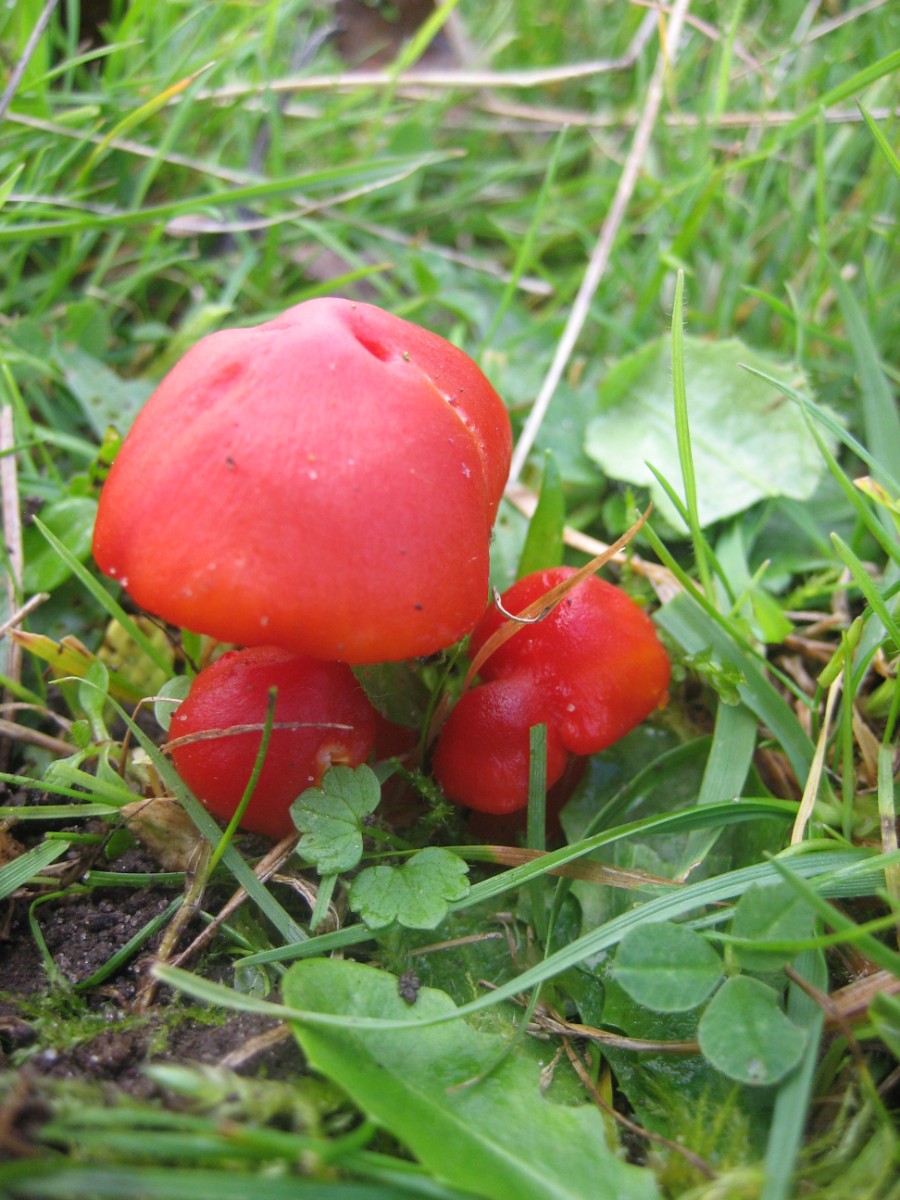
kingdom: Fungi
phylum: Basidiomycota
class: Agaricomycetes
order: Agaricales
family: Hygrophoraceae
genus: Hygrocybe
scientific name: Hygrocybe coccinea
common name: cinnober-vokshat
